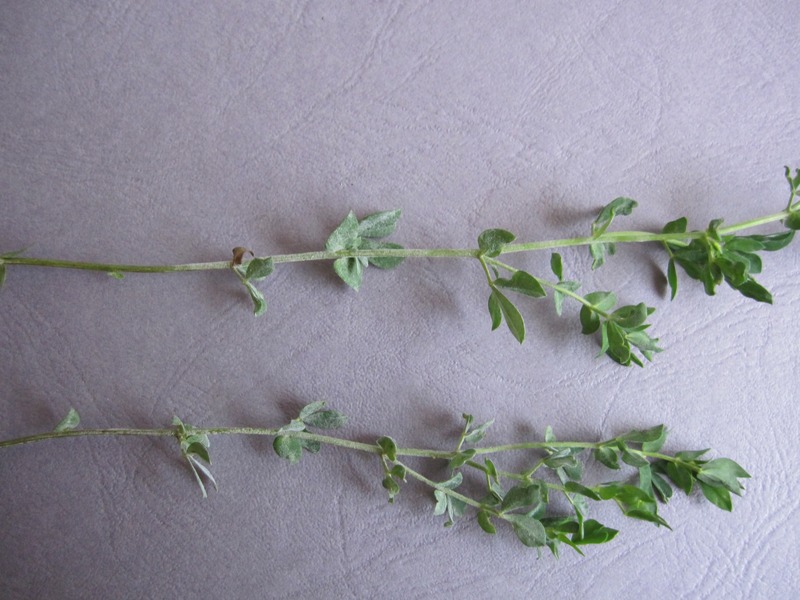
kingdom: Fungi
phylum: Ascomycota
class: Leotiomycetes
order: Helotiales
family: Erysiphaceae
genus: Erysiphe
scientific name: Erysiphe trifolii
